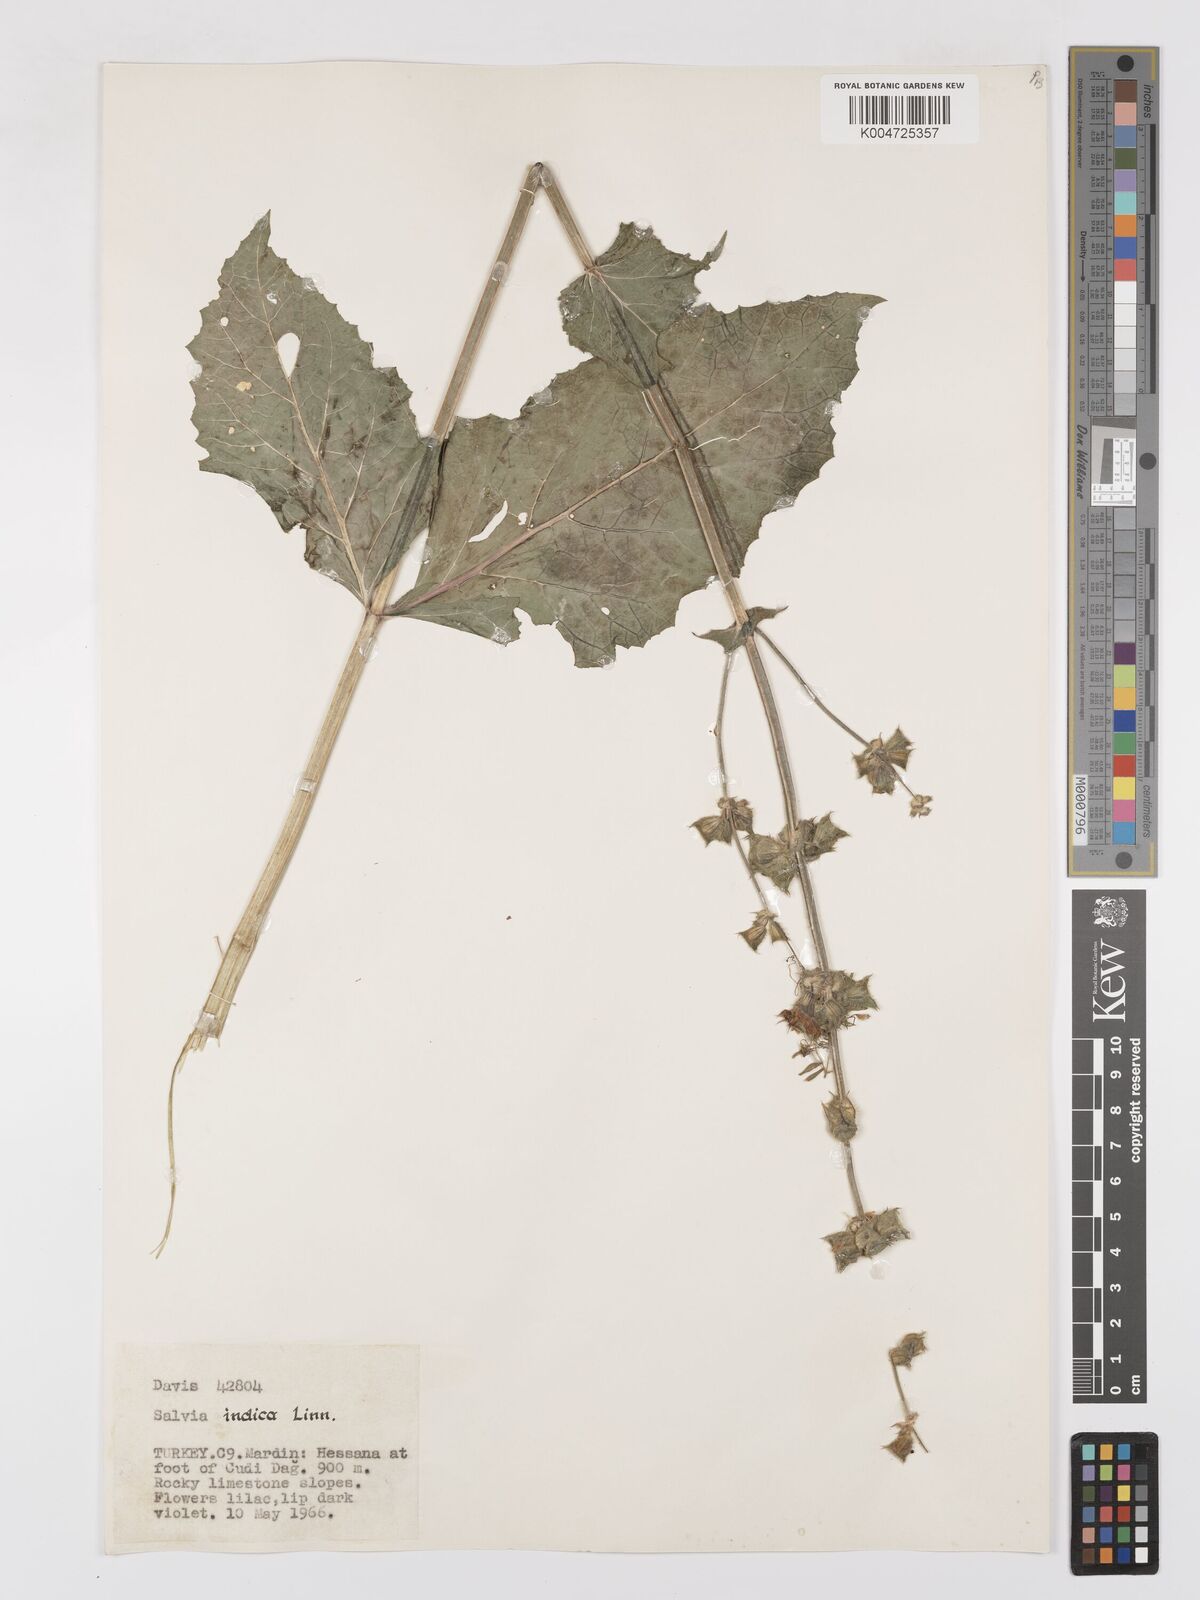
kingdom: Plantae
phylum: Tracheophyta
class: Magnoliopsida
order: Lamiales
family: Lamiaceae
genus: Salvia
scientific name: Salvia indica
